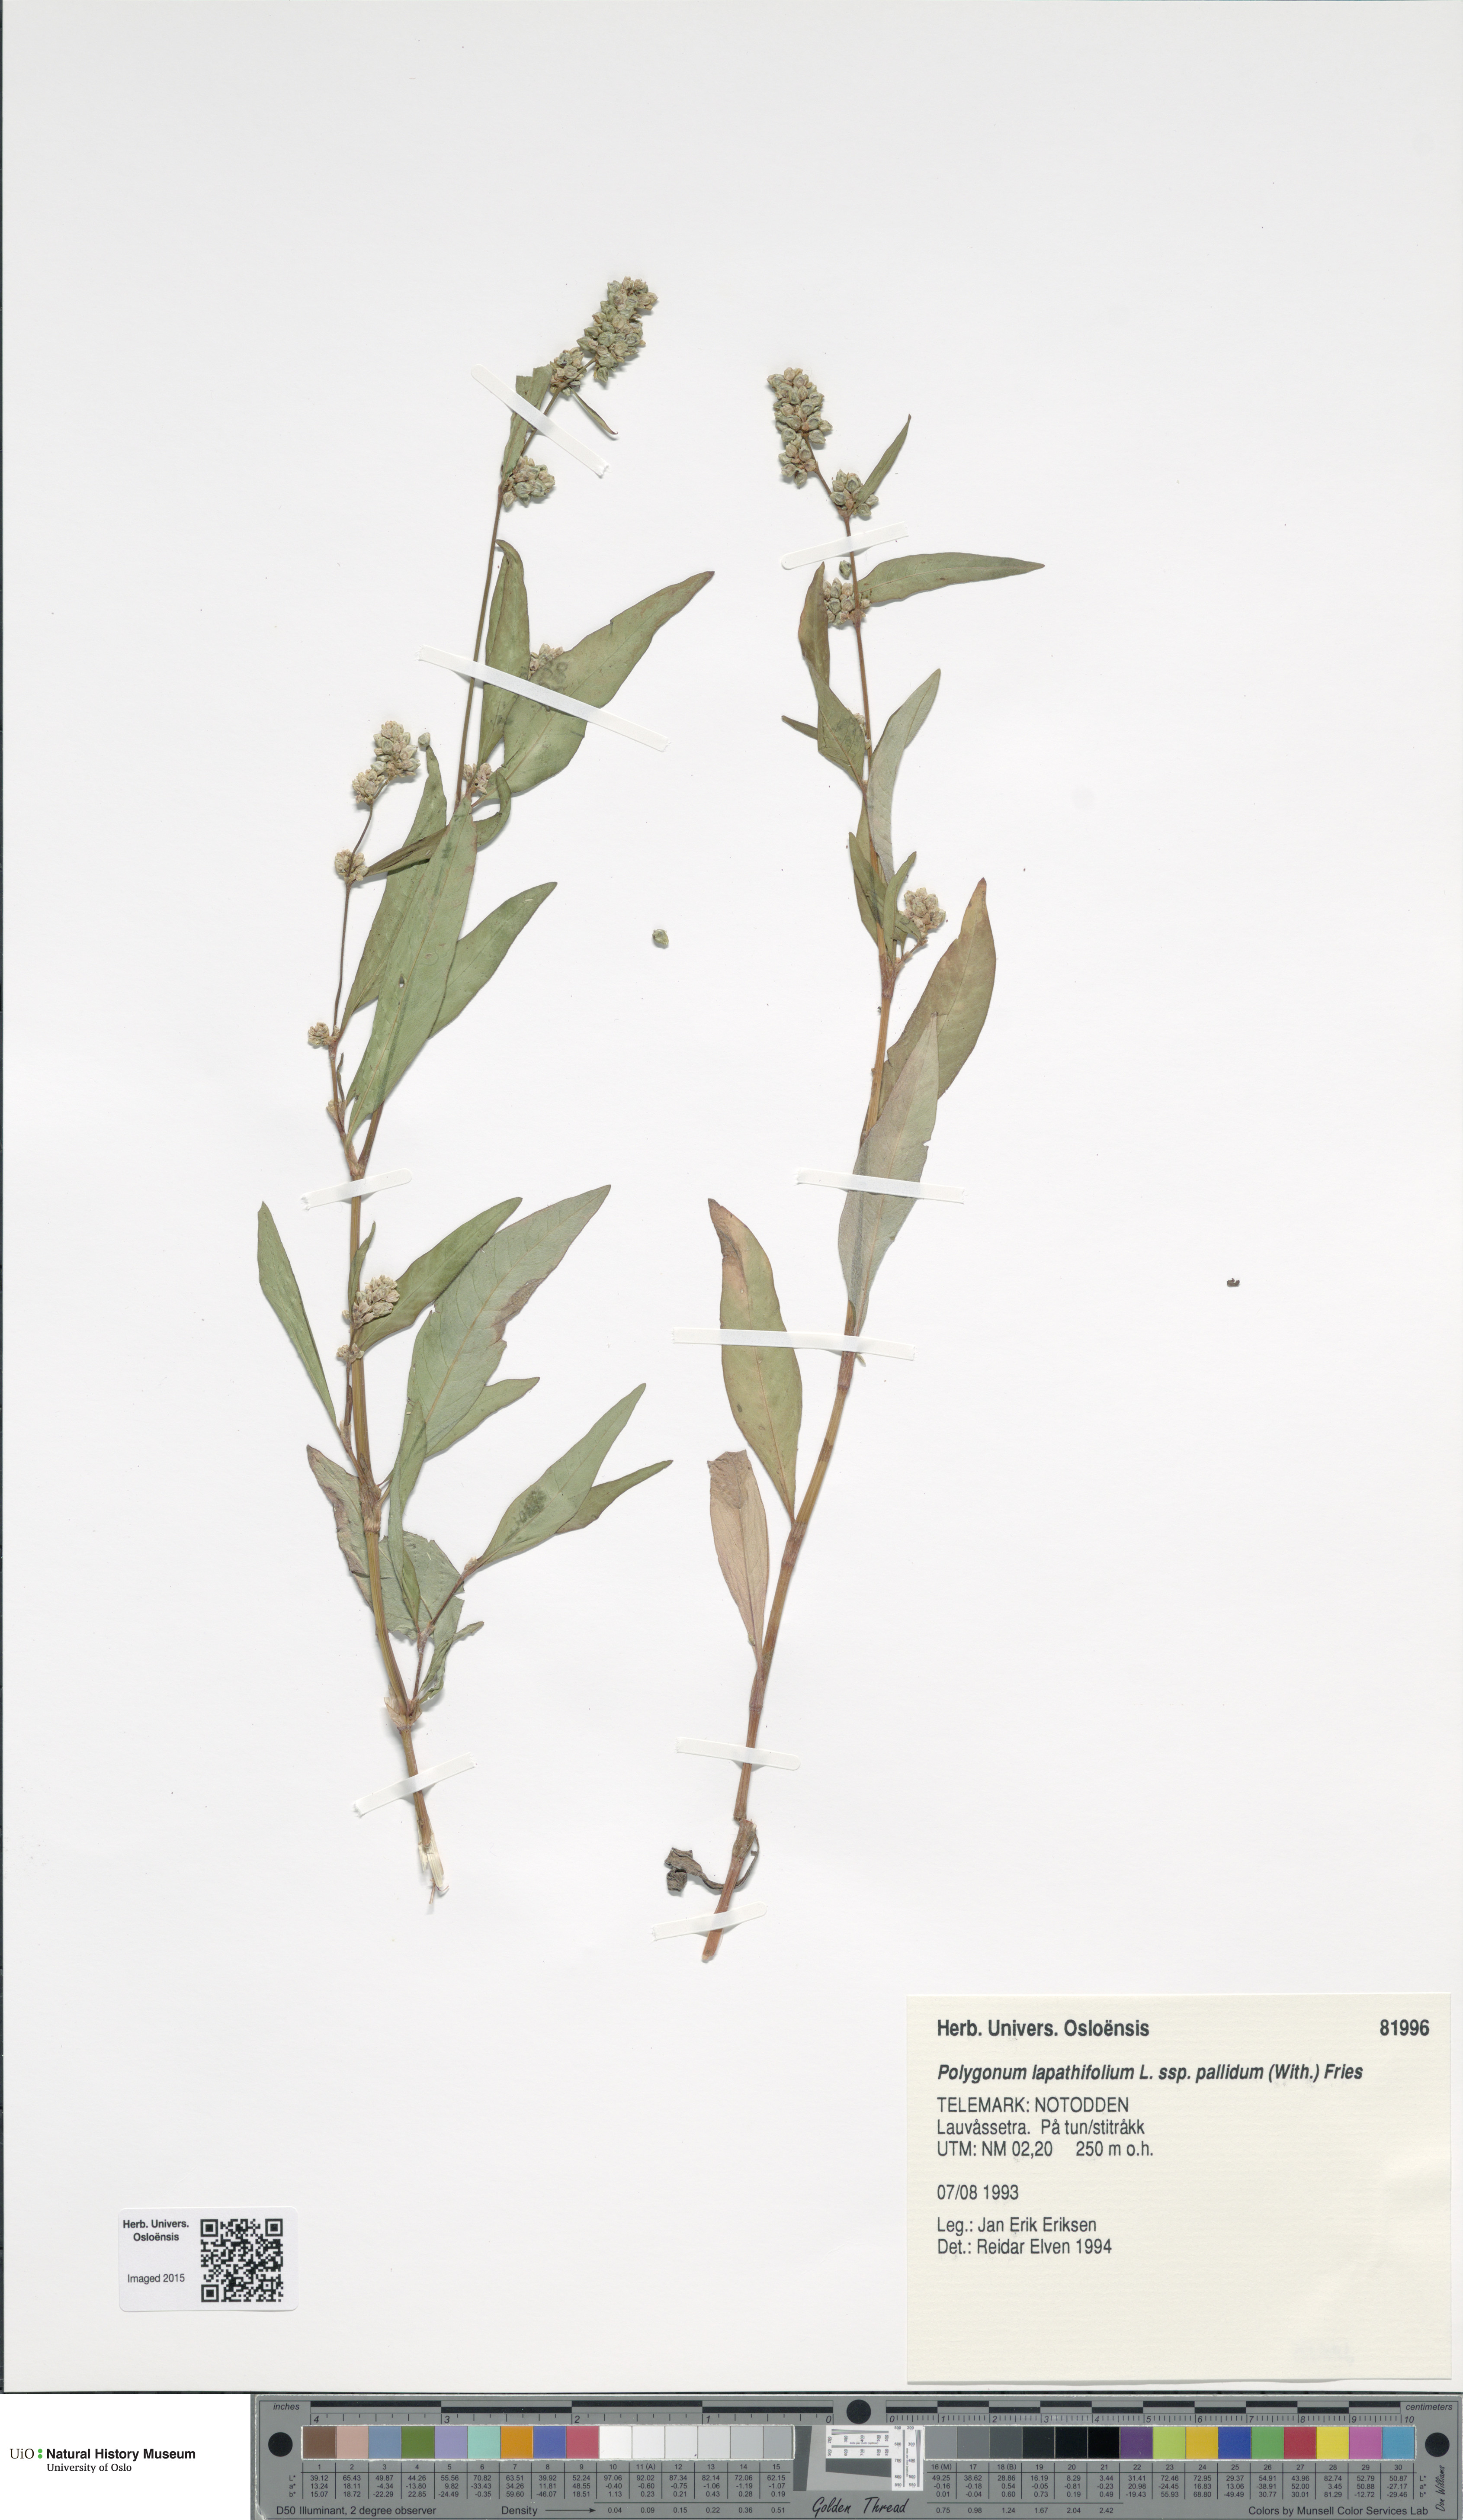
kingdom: Plantae
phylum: Tracheophyta
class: Magnoliopsida
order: Caryophyllales
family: Polygonaceae
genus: Persicaria
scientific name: Persicaria lapathifolia
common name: Curlytop knotweed
